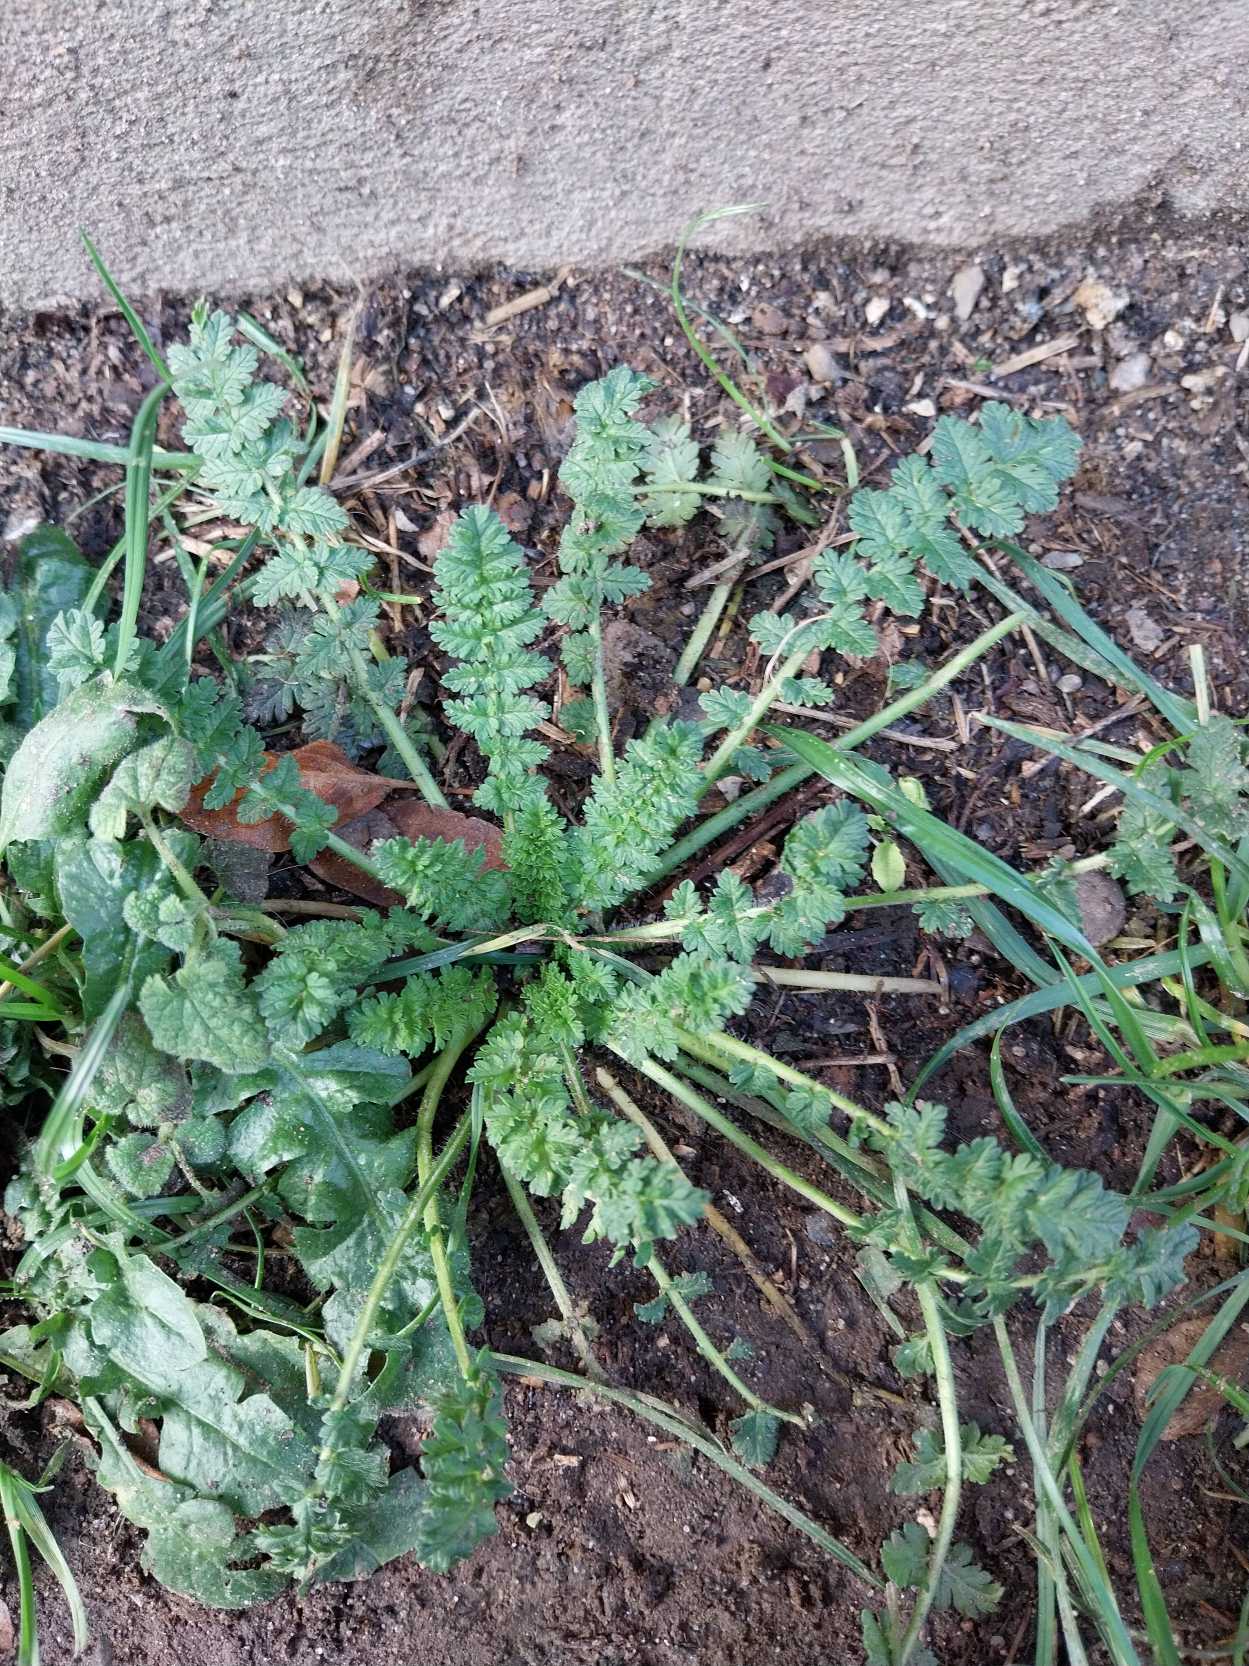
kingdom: Plantae
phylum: Tracheophyta
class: Magnoliopsida
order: Geraniales
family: Geraniaceae
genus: Erodium
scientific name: Erodium cicutarium
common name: Hejrenæb
